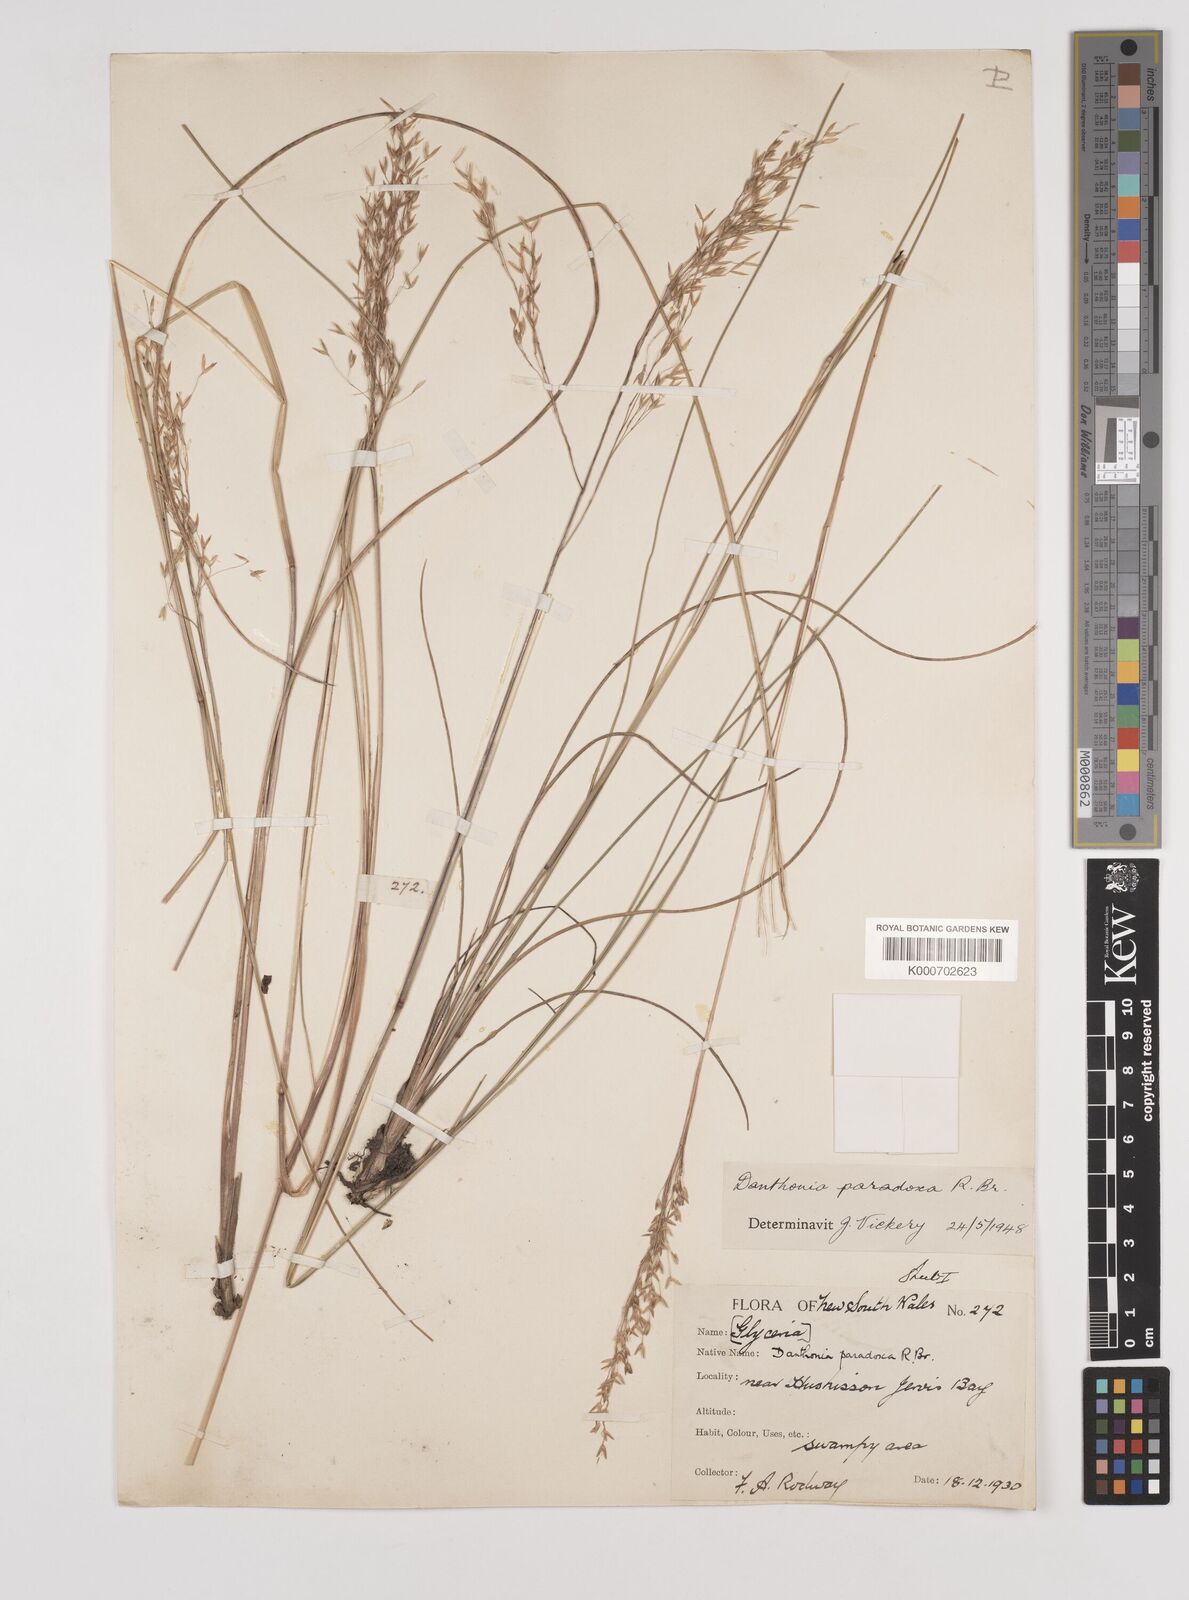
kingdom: Plantae
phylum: Tracheophyta
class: Liliopsida
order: Poales
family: Poaceae
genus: Plinthanthesis
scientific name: Plinthanthesis paradoxa
